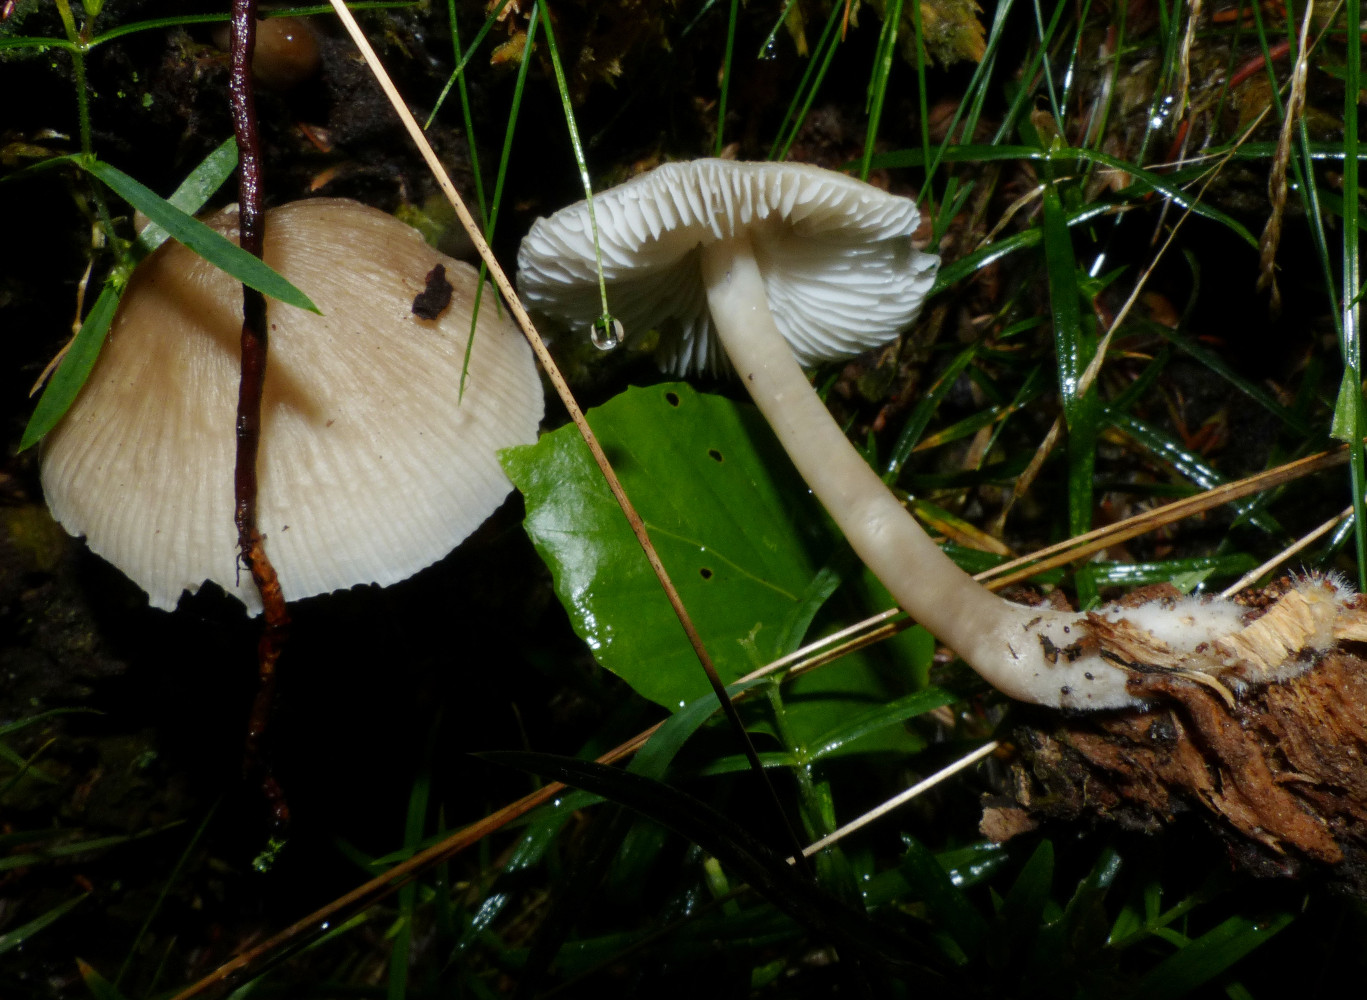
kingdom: Fungi
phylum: Basidiomycota
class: Agaricomycetes
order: Agaricales
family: Mycenaceae
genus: Mycena
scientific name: Mycena galericulata
